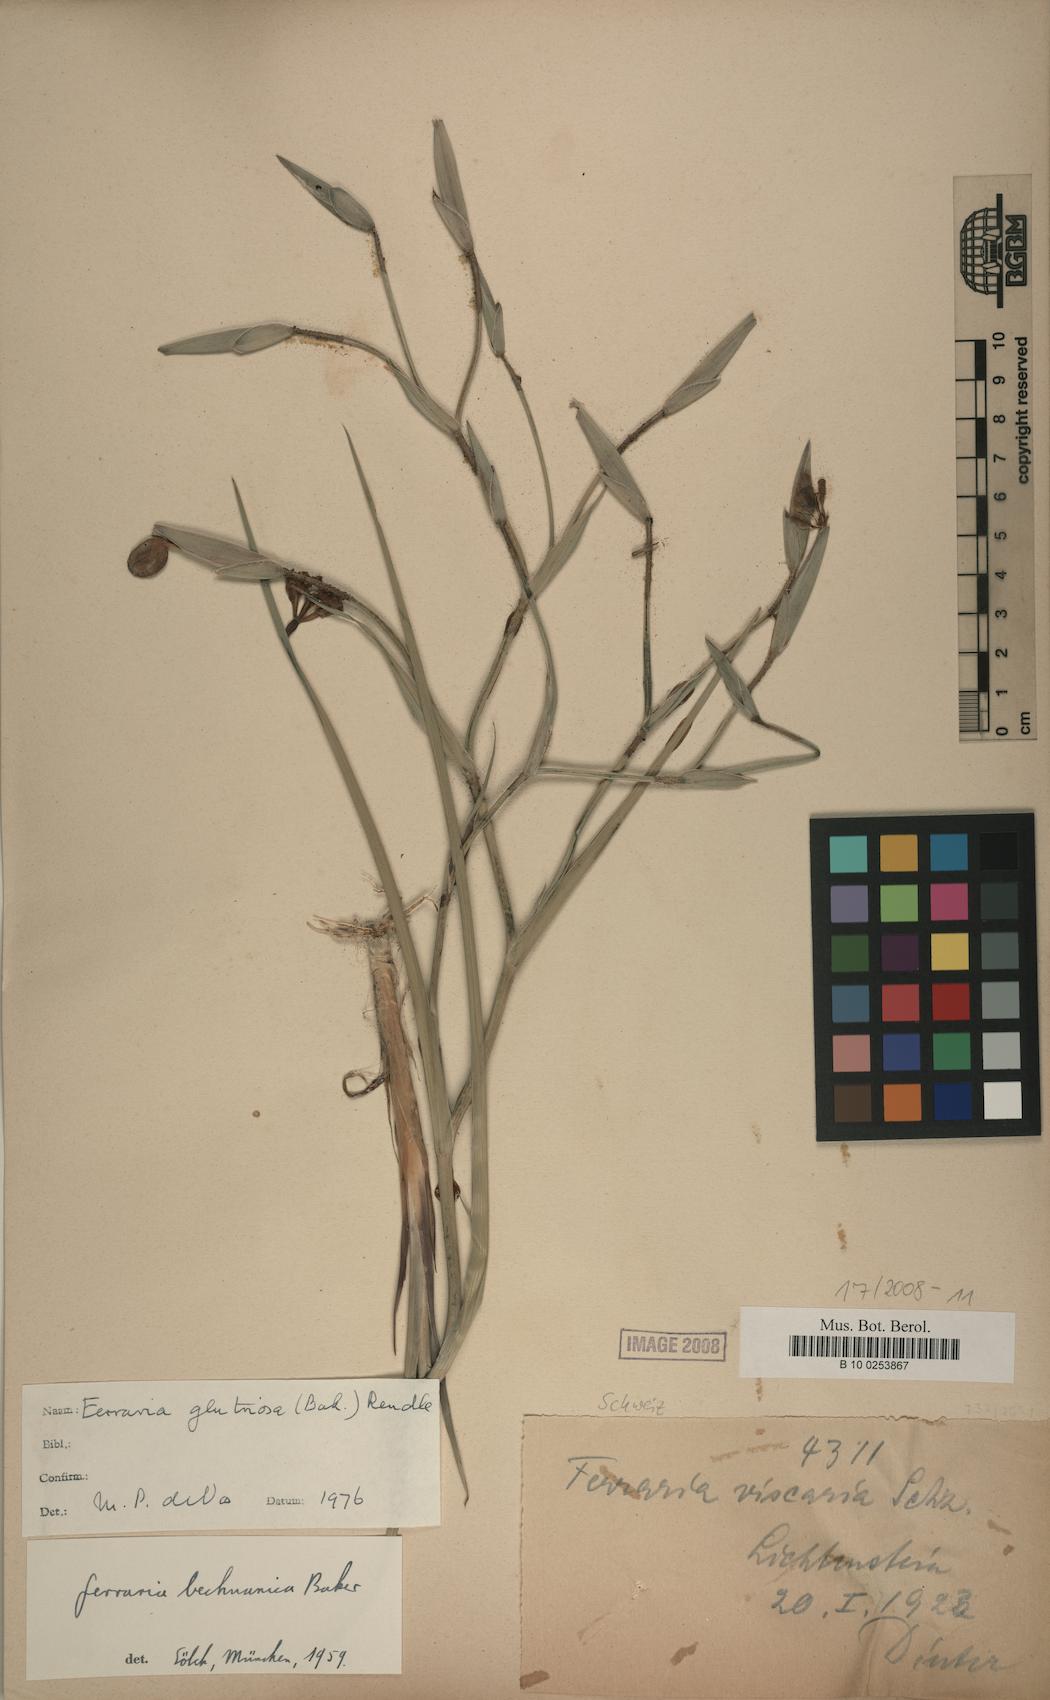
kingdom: Plantae
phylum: Tracheophyta
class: Liliopsida
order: Asparagales
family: Iridaceae
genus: Ferraria
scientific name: Ferraria glutinosa
